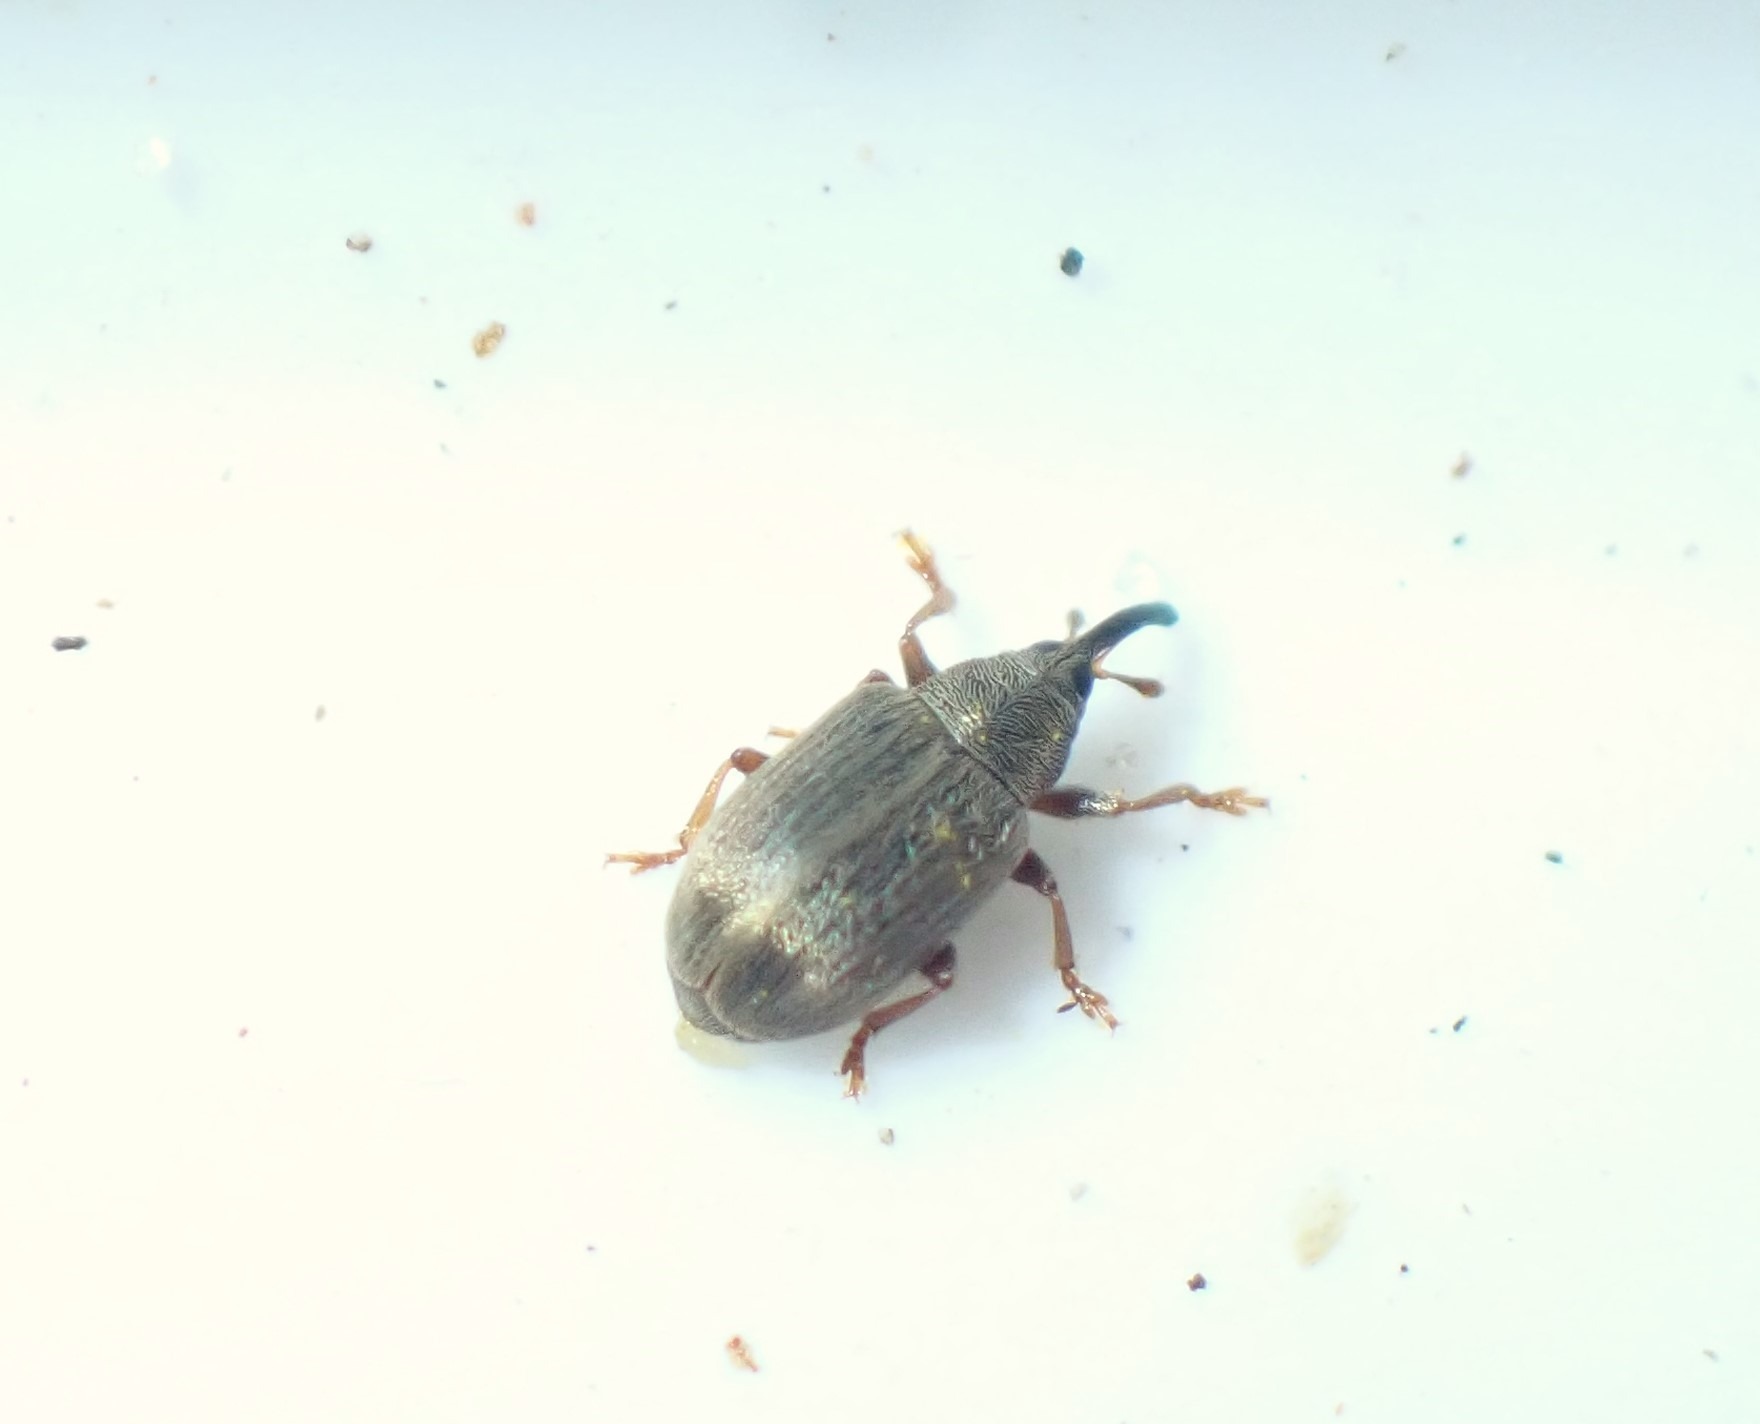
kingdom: Animalia
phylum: Arthropoda
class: Insecta
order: Coleoptera
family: Curculionidae
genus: Acalyptus
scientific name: Acalyptus carpini
